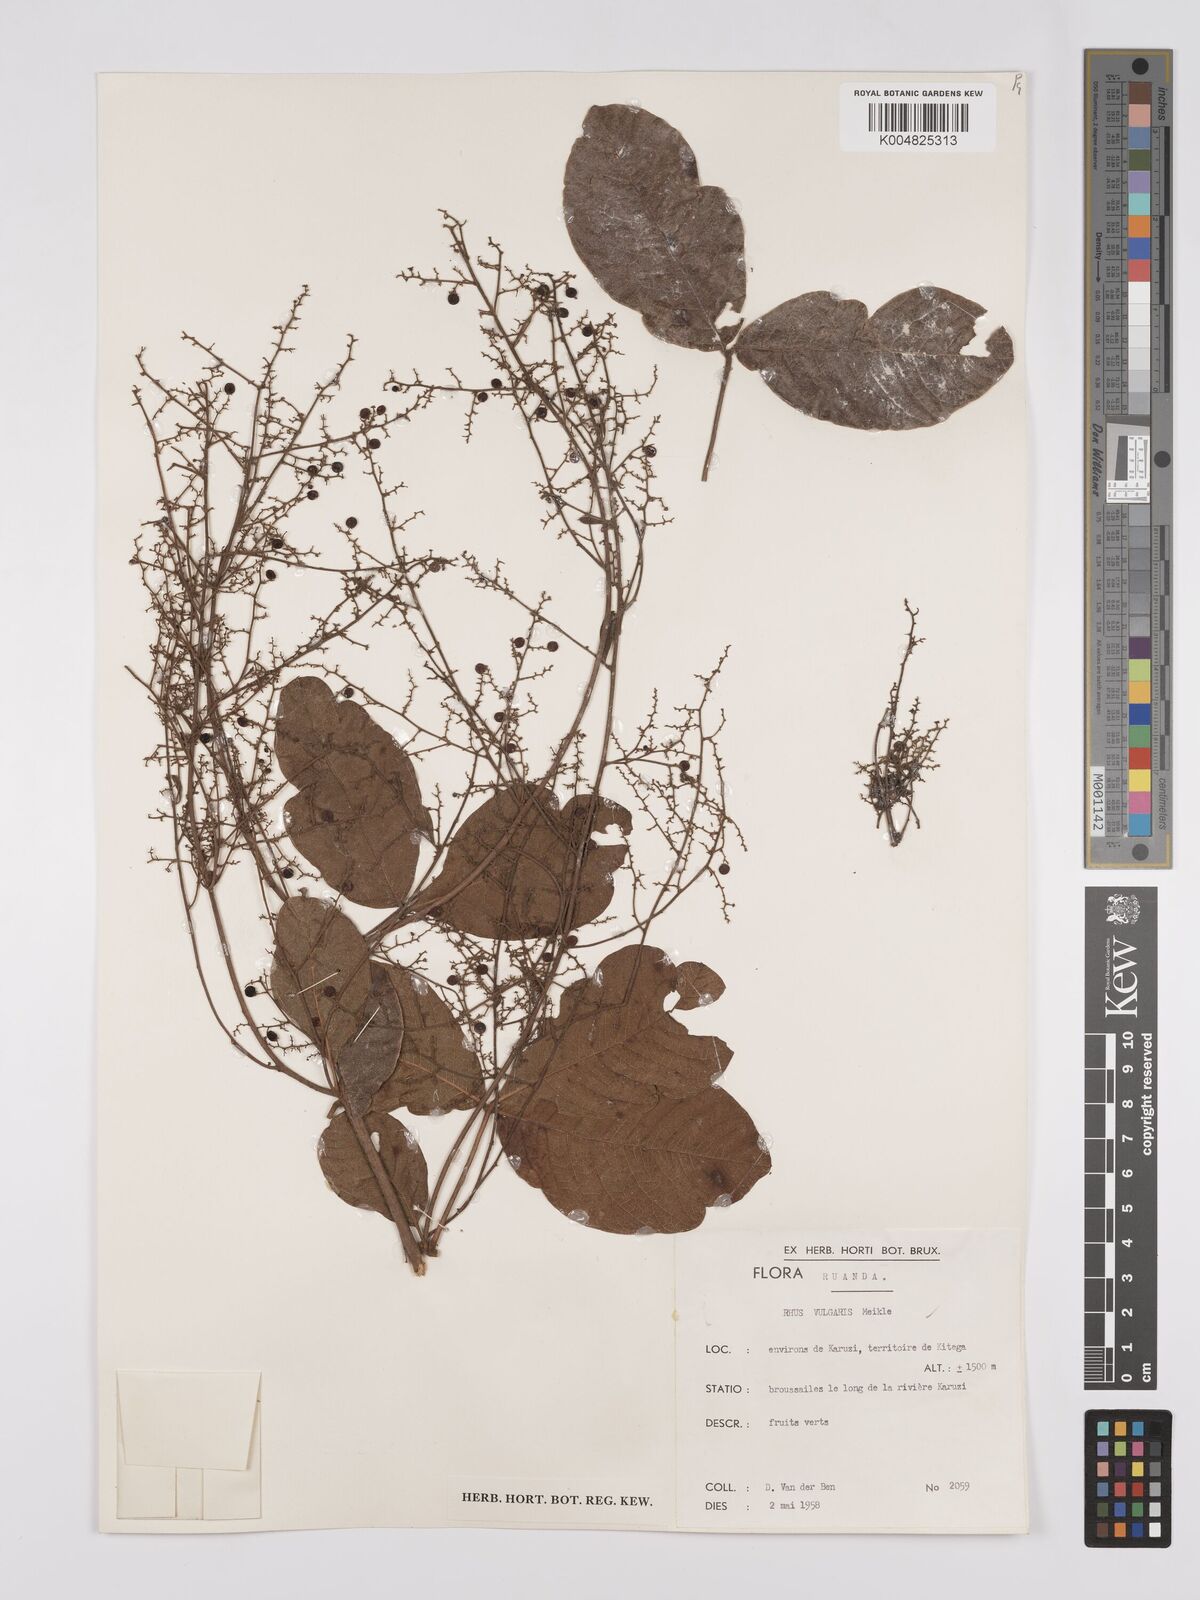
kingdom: Plantae
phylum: Tracheophyta
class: Magnoliopsida
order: Sapindales
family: Anacardiaceae
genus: Searsia
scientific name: Searsia pyroides
